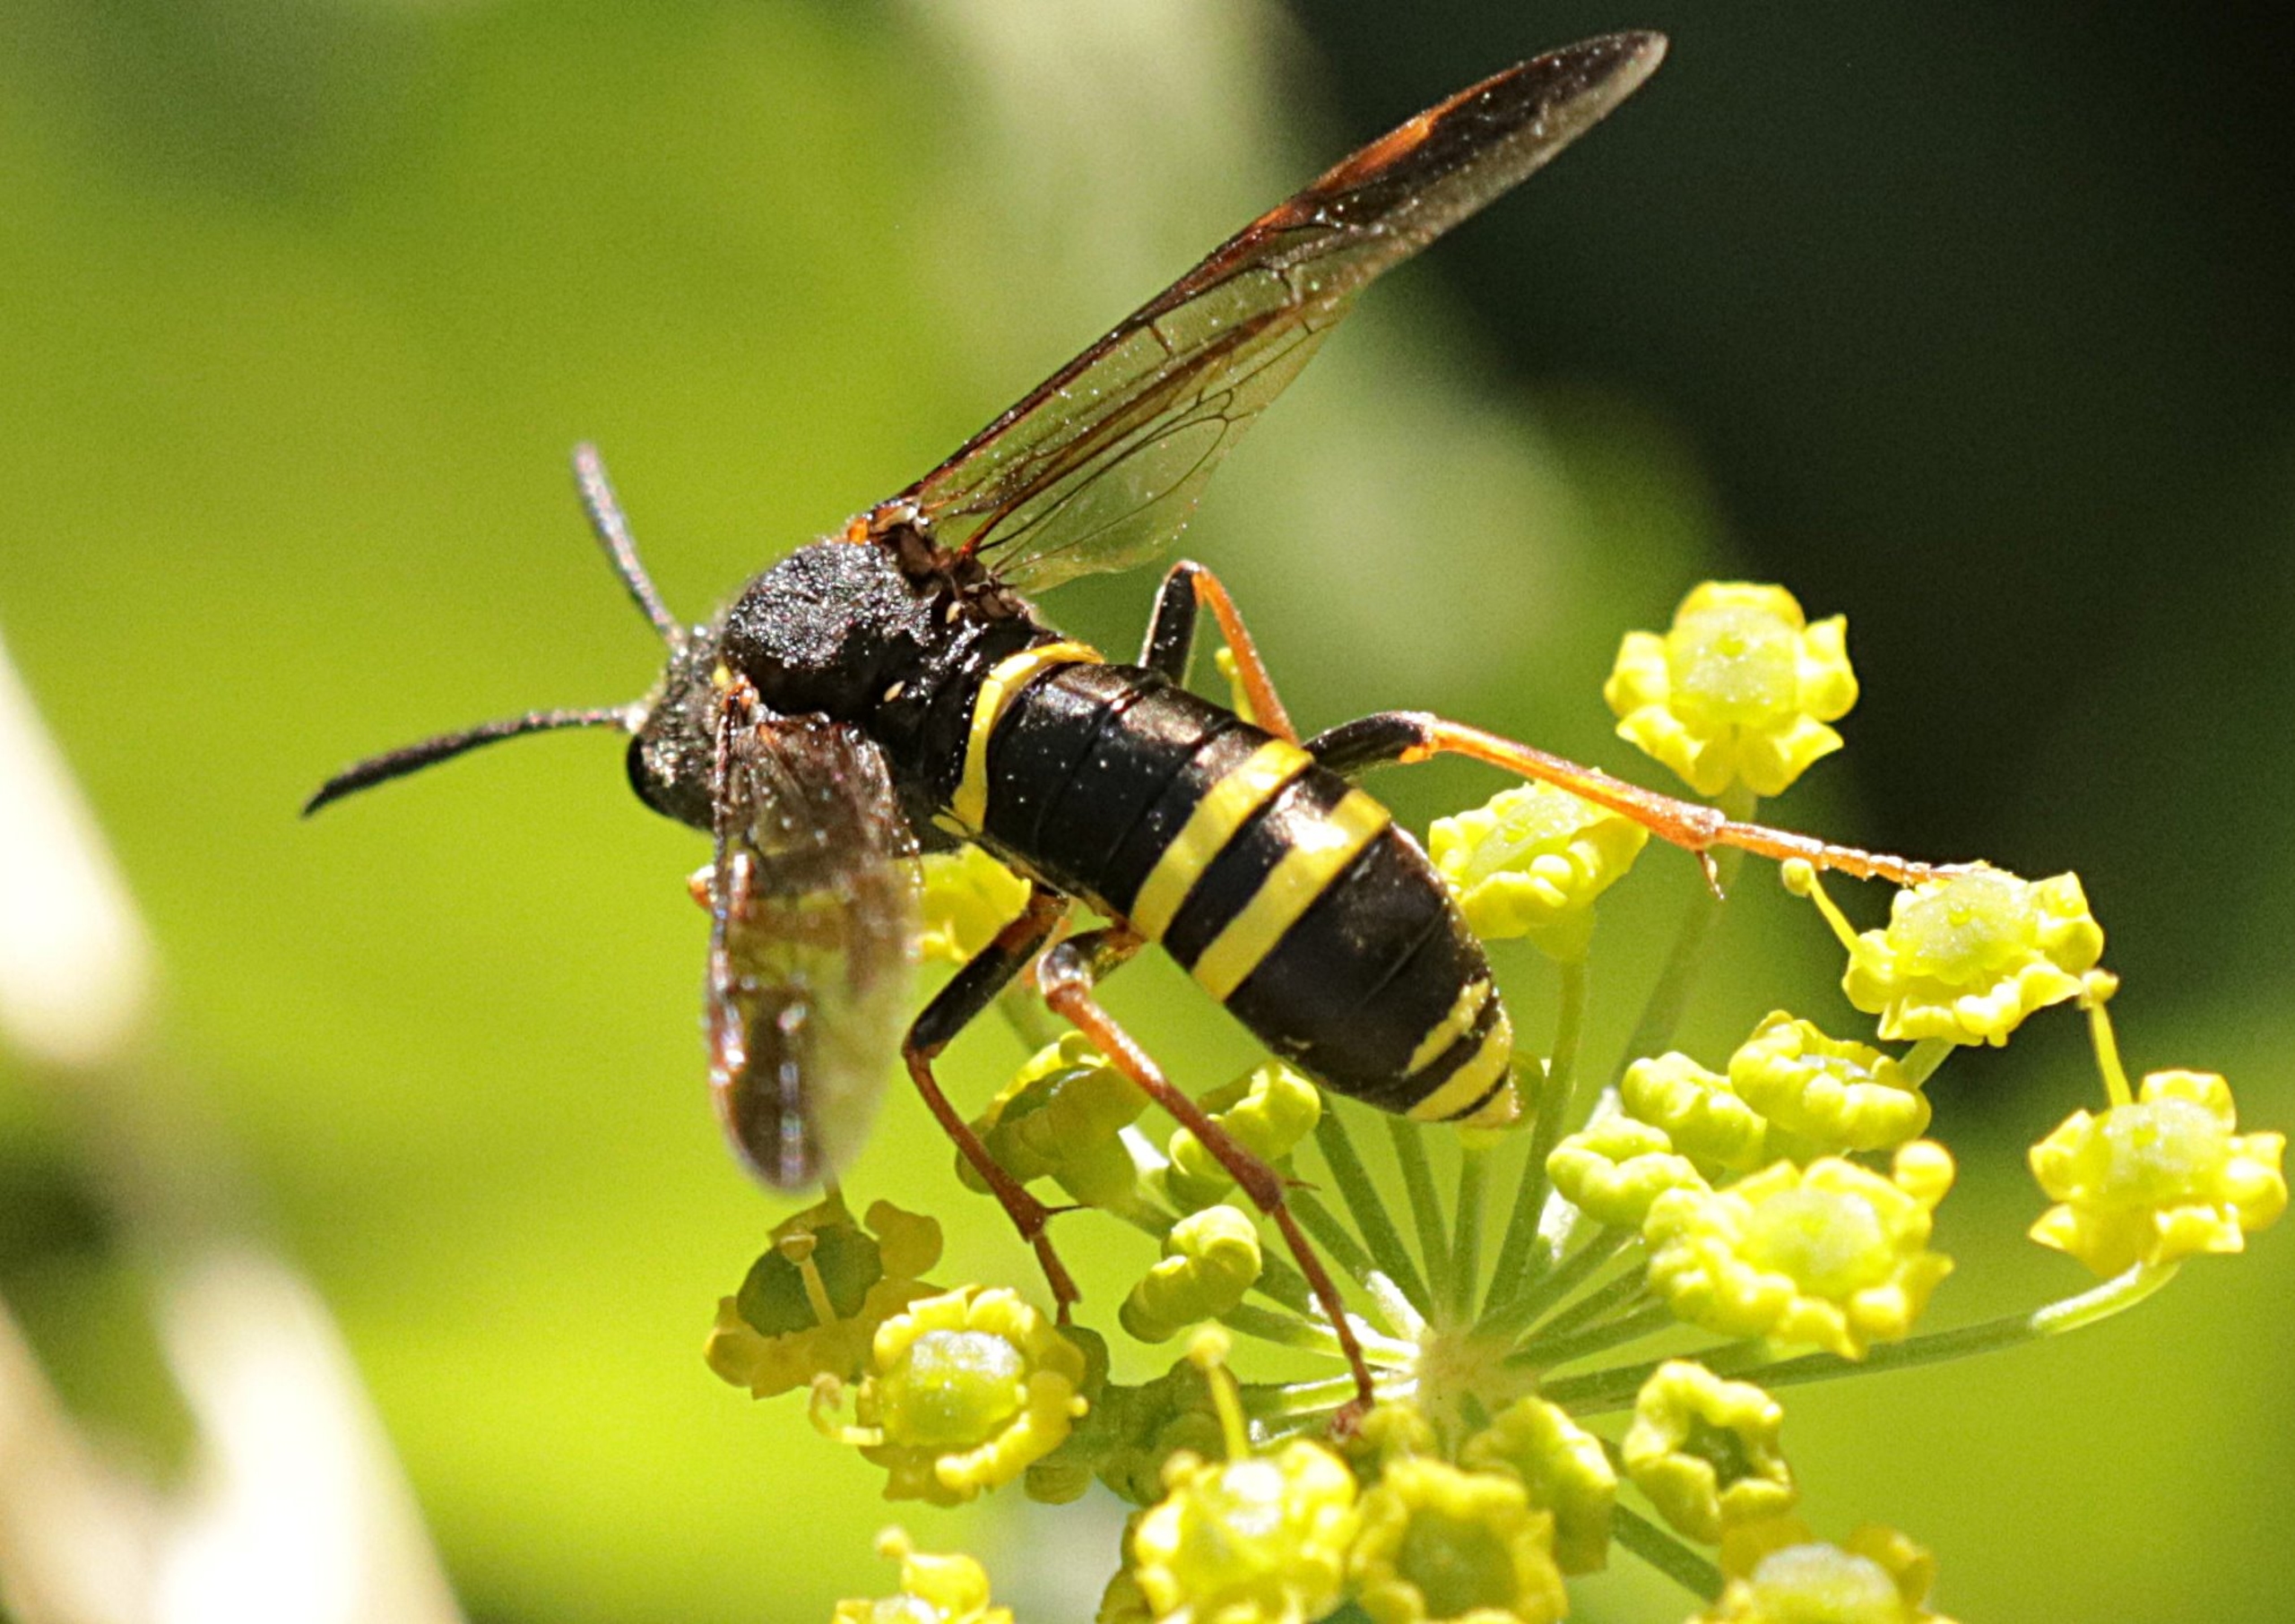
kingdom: Animalia
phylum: Arthropoda
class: Insecta
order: Hymenoptera
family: Tenthredinidae
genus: Tenthredo
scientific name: Tenthredo vespa
